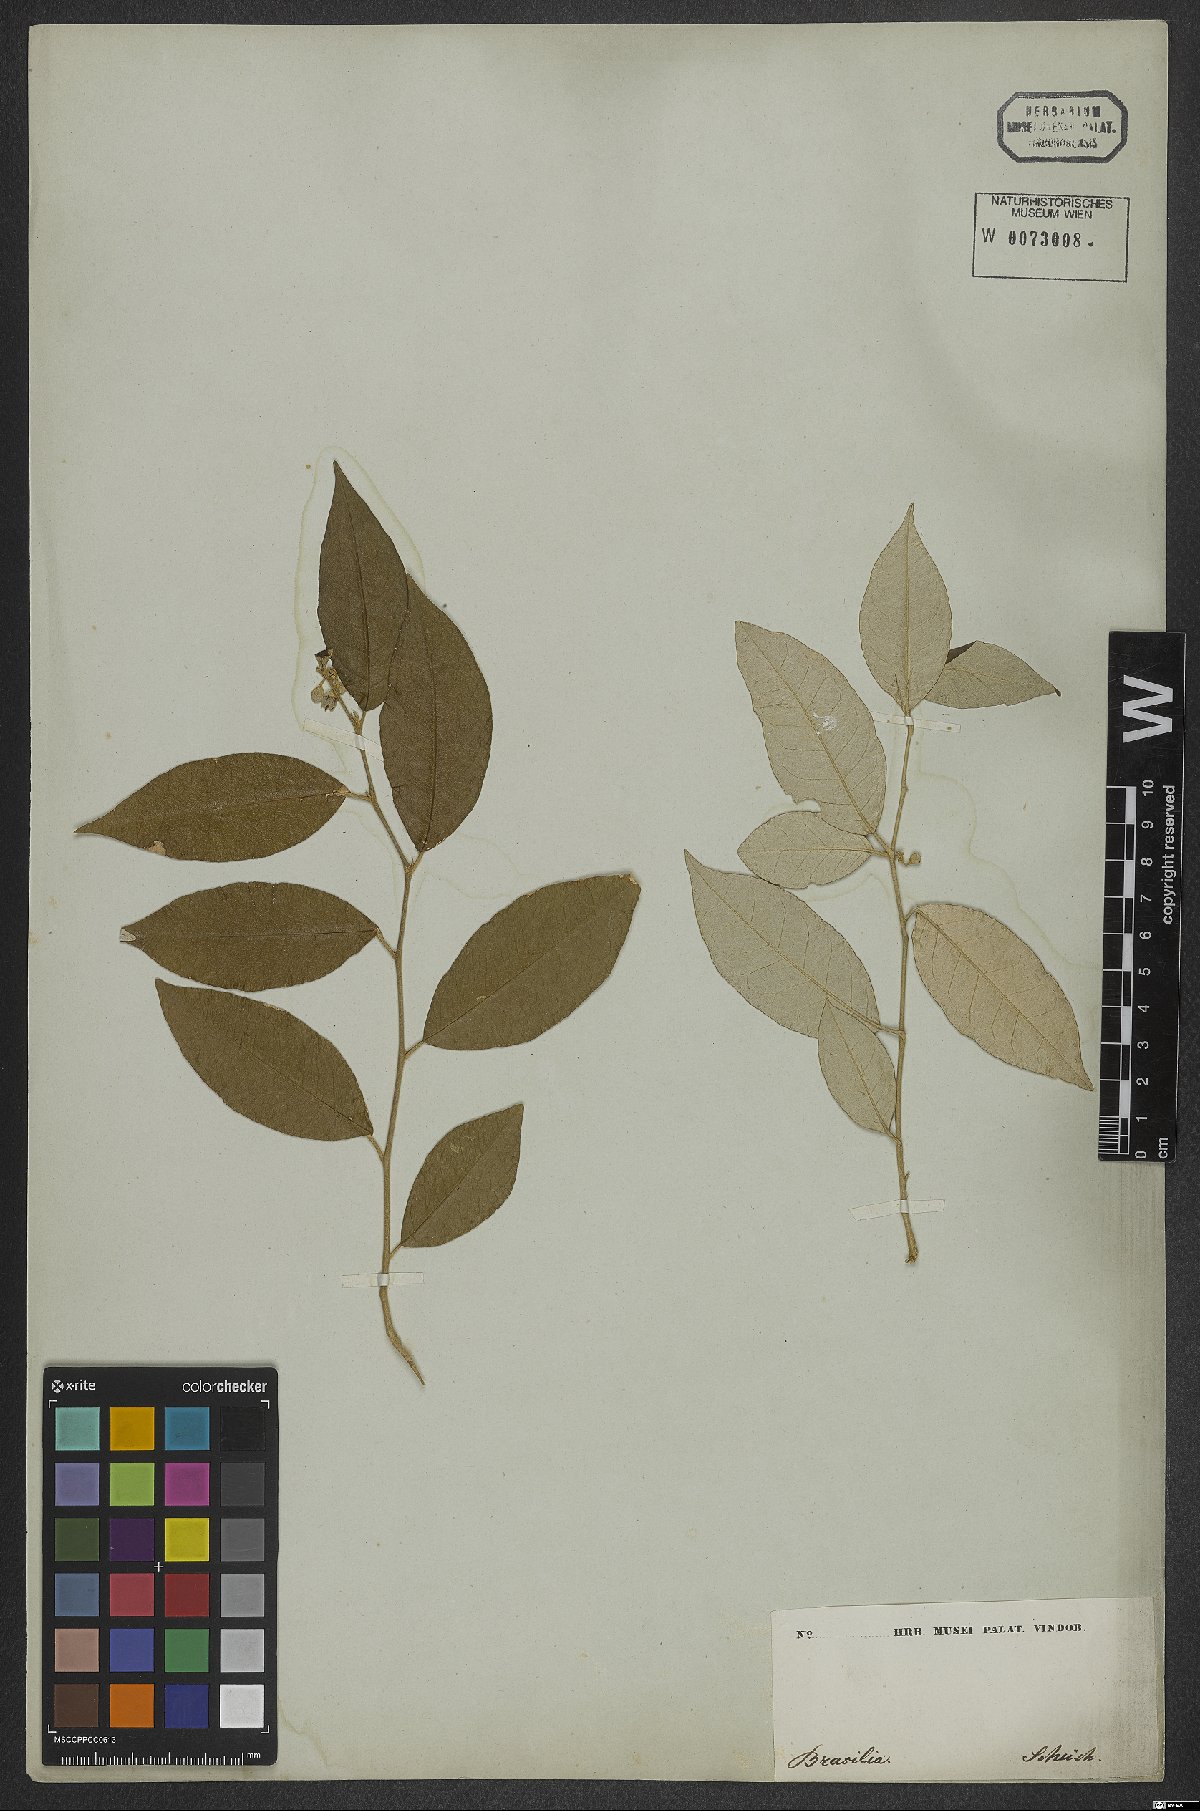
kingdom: Plantae
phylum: Tracheophyta
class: Magnoliopsida
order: Solanales
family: Solanaceae
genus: Solanum
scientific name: Solanum swartzianum
